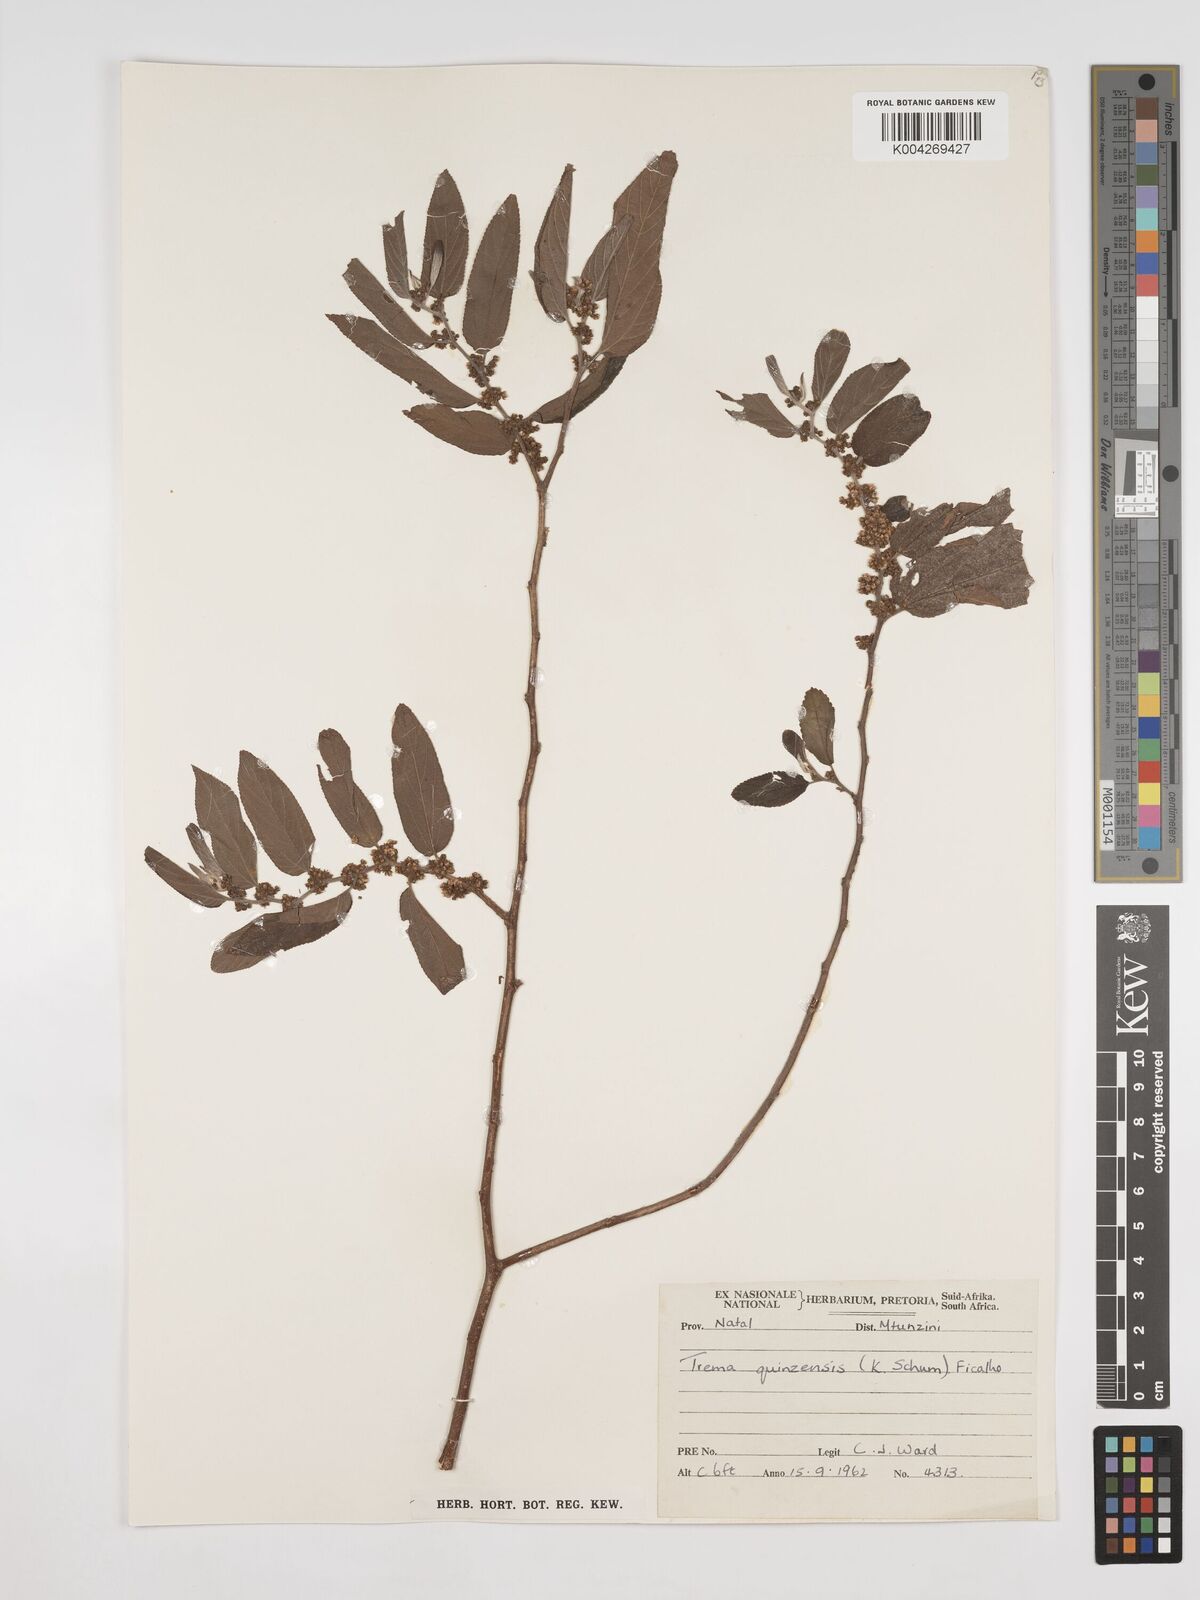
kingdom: Plantae
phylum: Tracheophyta
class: Magnoliopsida
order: Rosales
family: Cannabaceae
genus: Trema
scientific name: Trema orientale
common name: Indian charcoal tree
